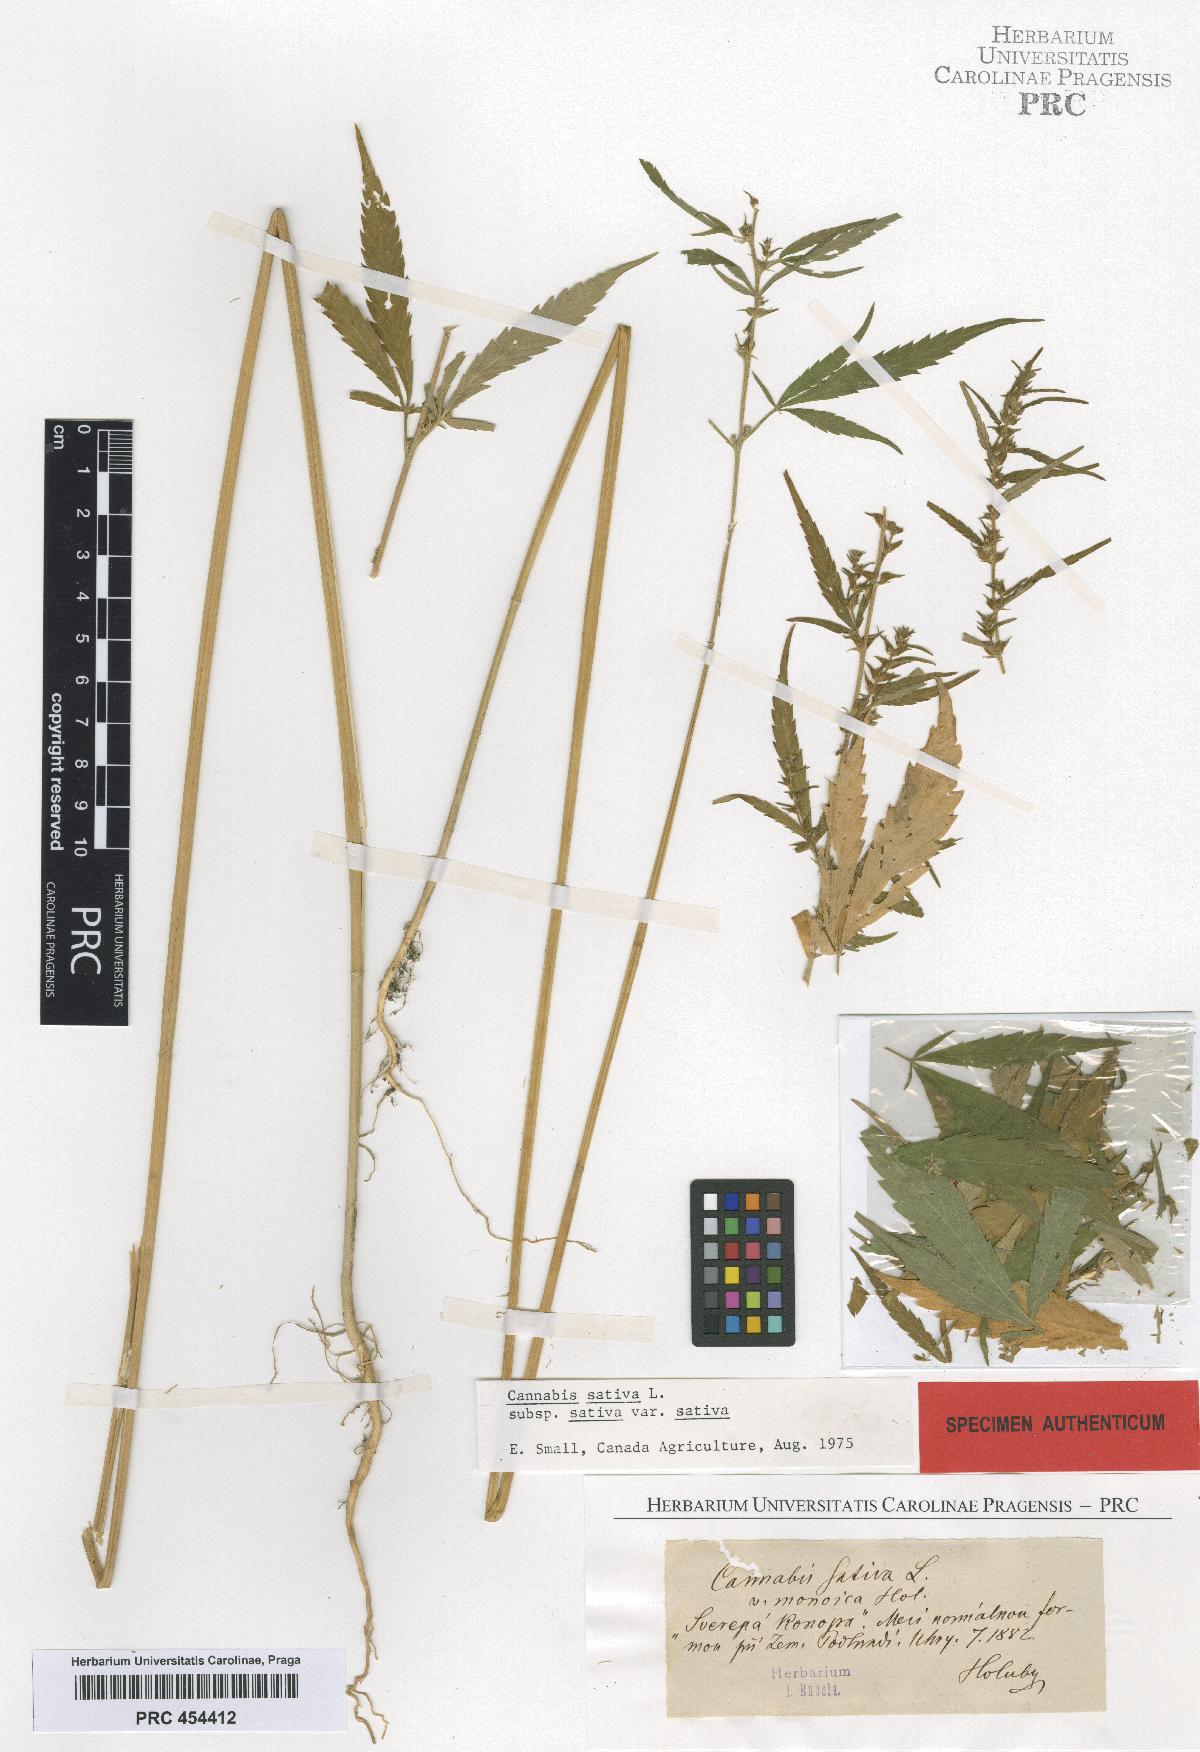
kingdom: Plantae
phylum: Tracheophyta
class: Magnoliopsida
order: Rosales
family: Cannabaceae
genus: Cannabis
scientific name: Cannabis sativa
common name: Hemp
